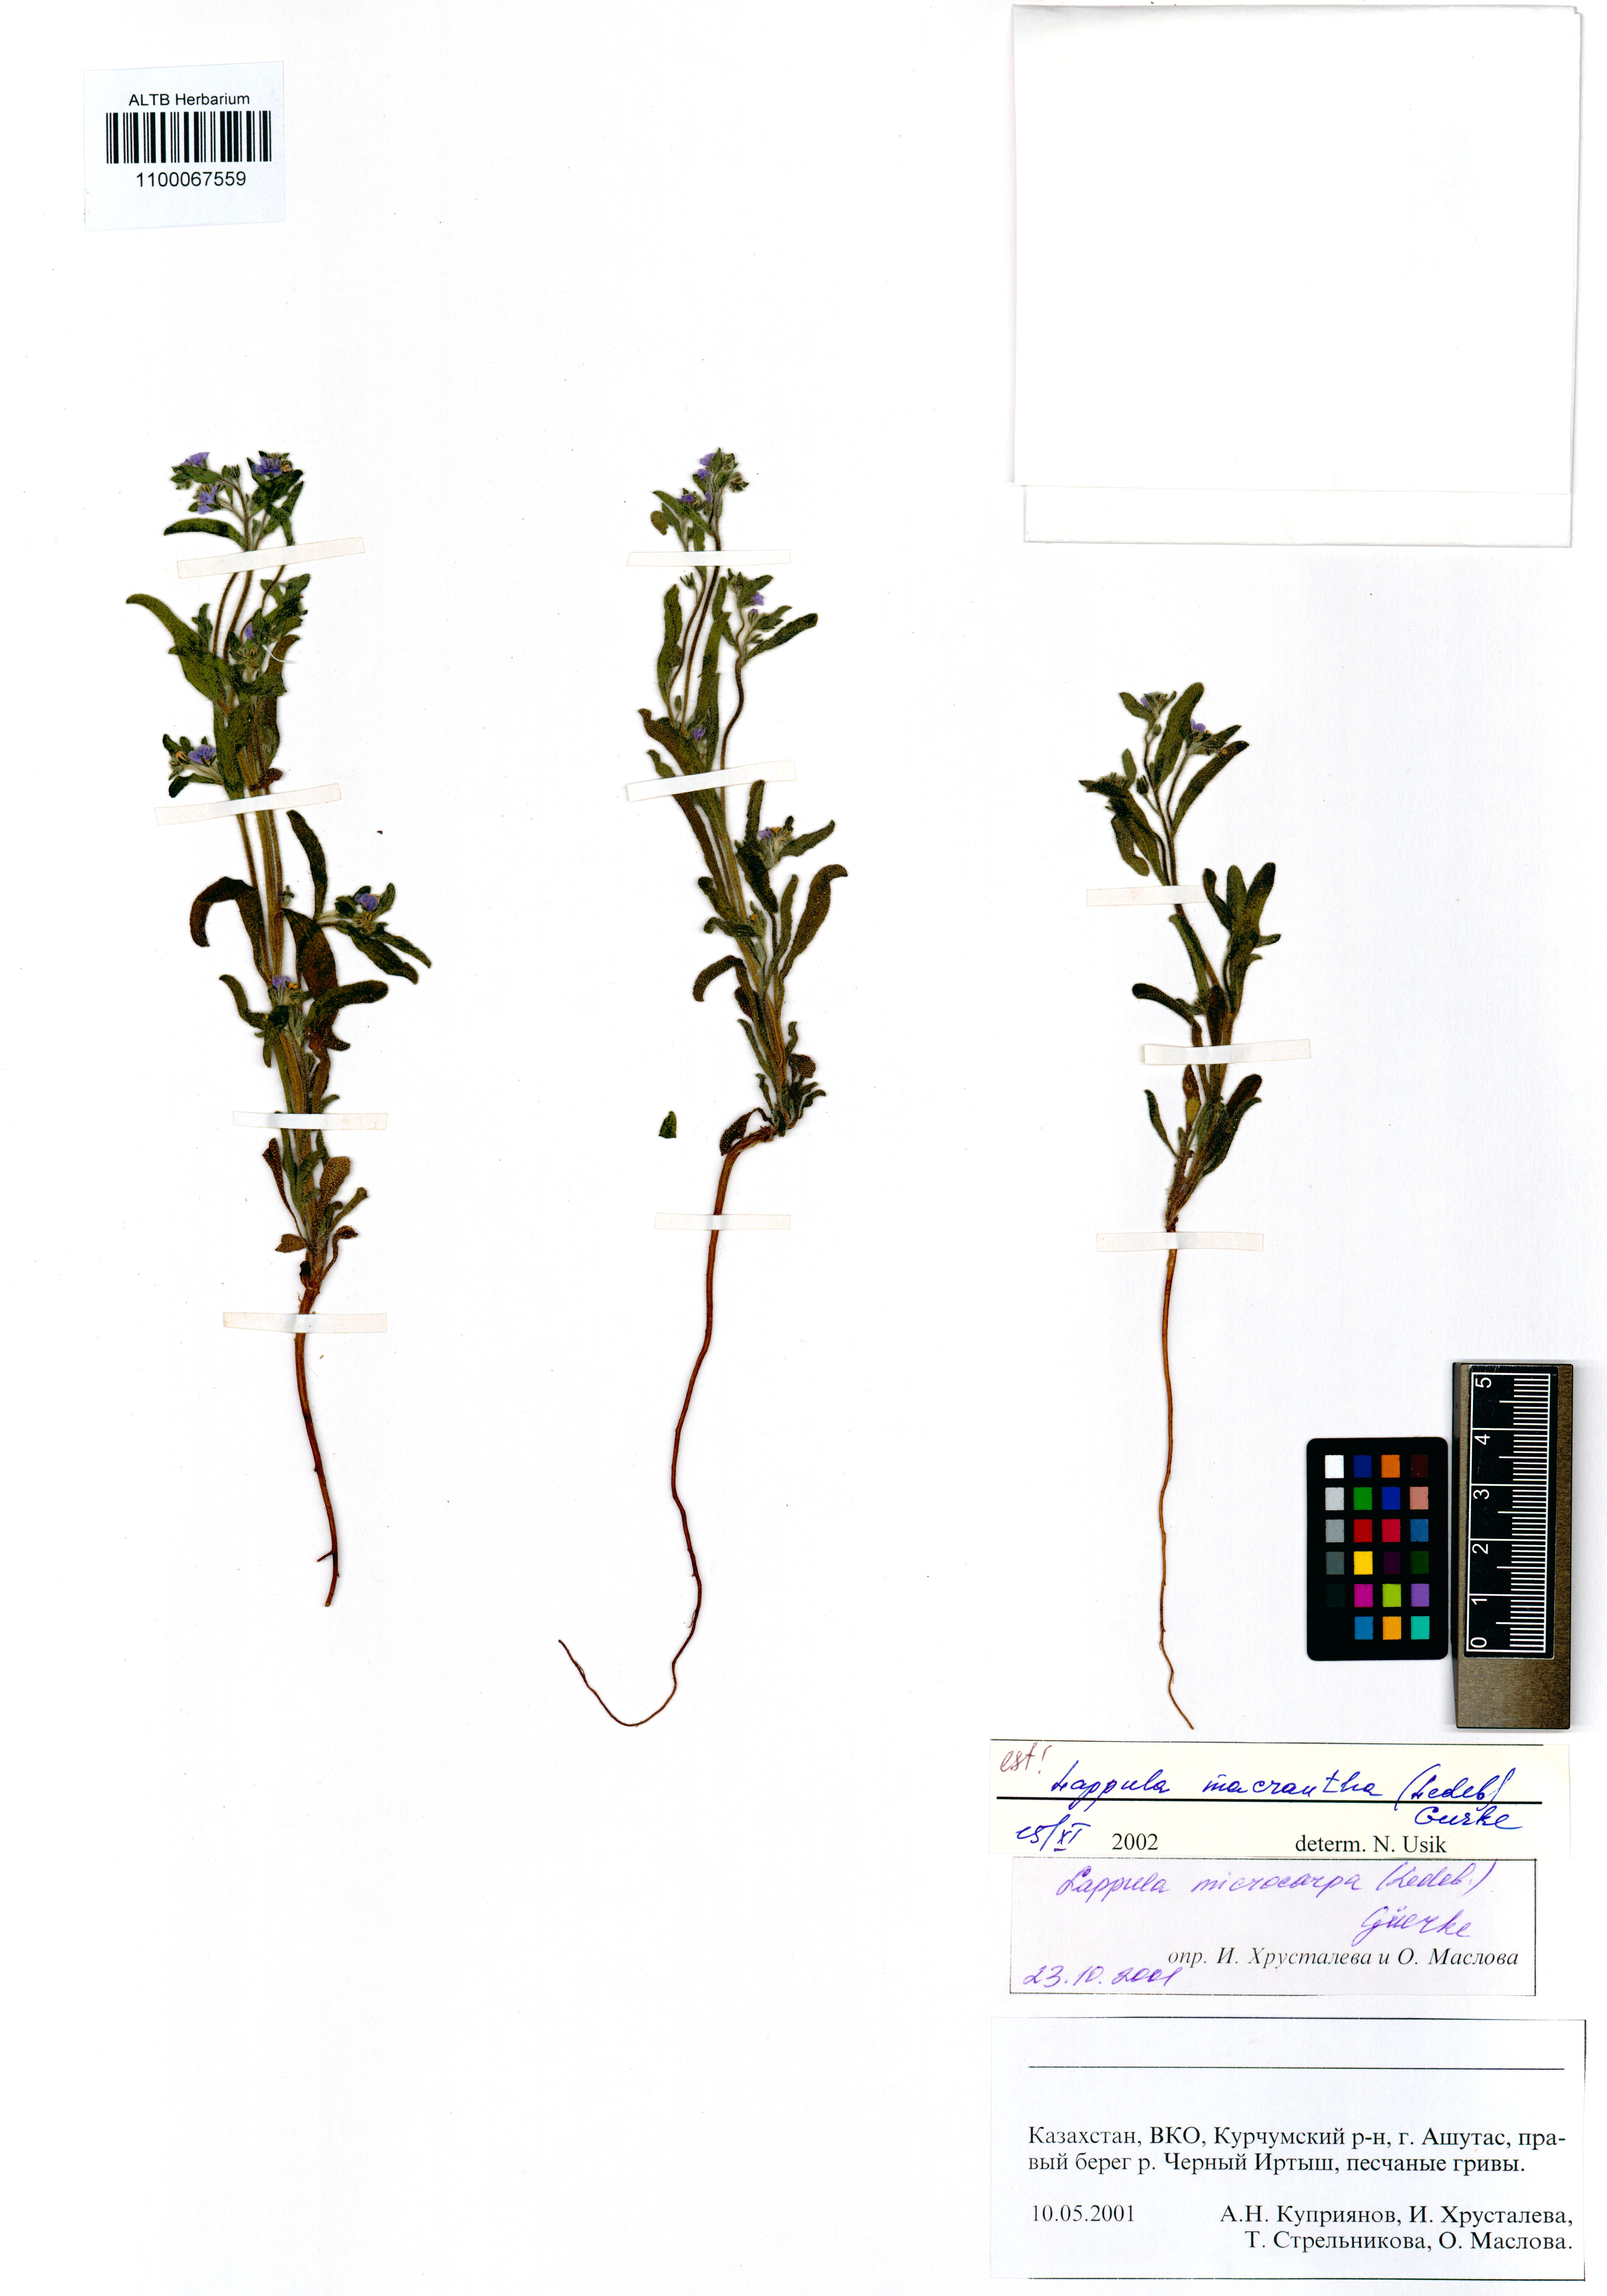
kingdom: Plantae
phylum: Tracheophyta
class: Magnoliopsida
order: Boraginales
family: Boraginaceae
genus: Lappula
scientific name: Lappula macrantha
